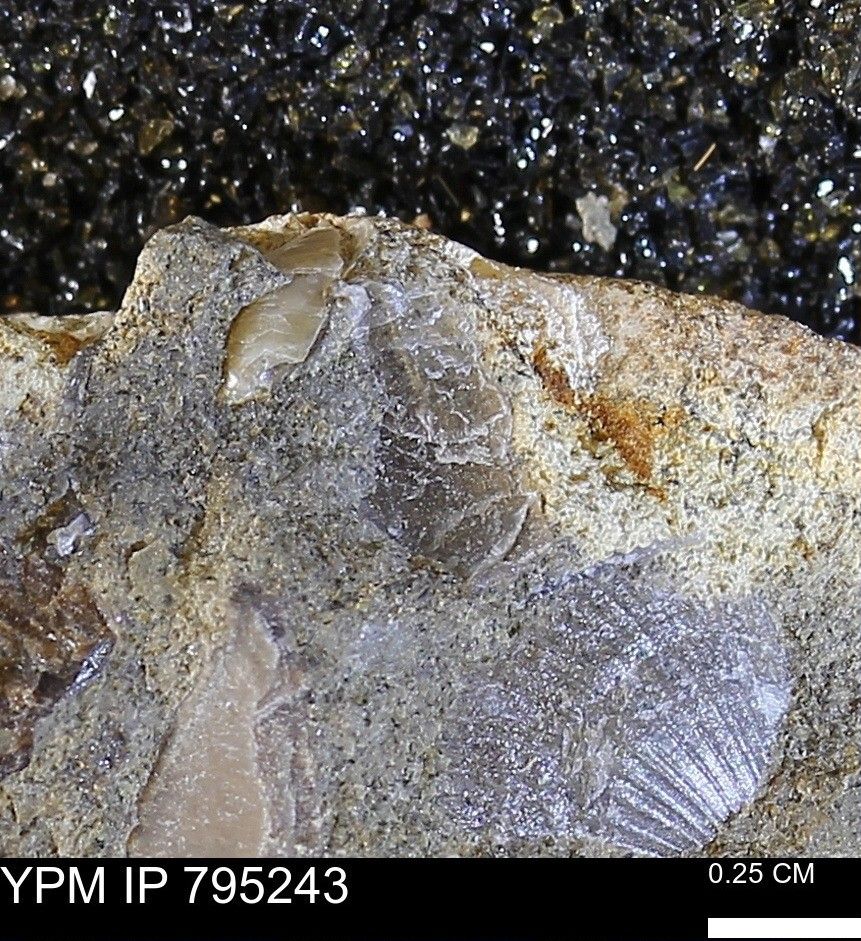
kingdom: Animalia
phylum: Mollusca
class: Bivalvia
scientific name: Bivalvia
